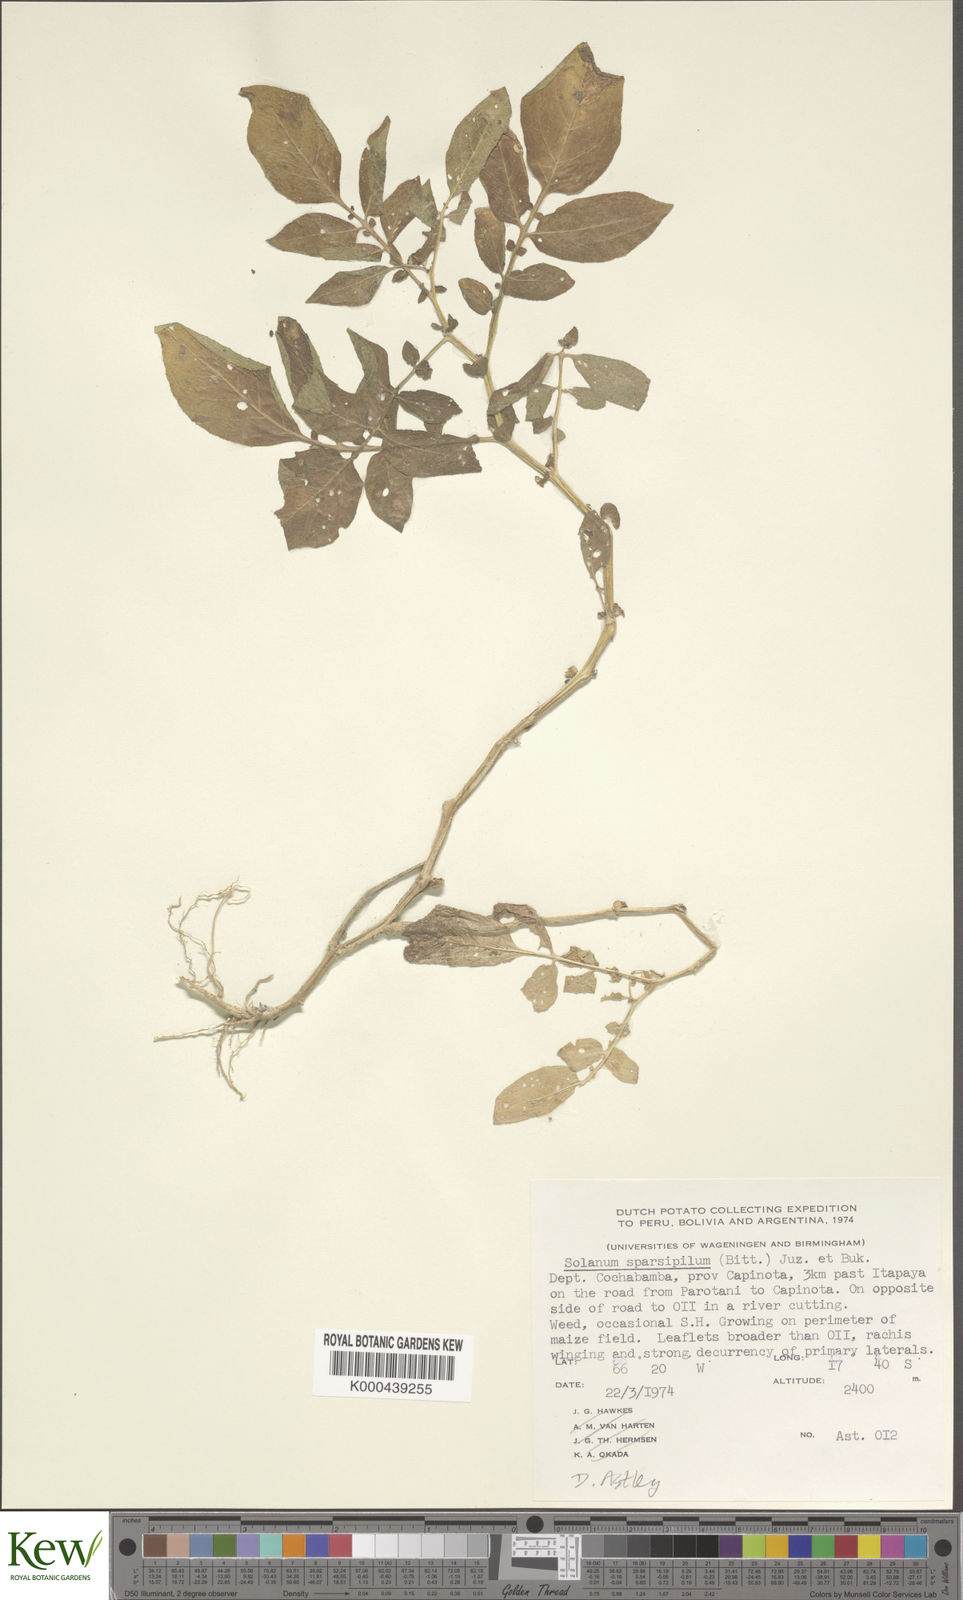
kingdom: Plantae
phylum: Tracheophyta
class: Magnoliopsida
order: Solanales
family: Solanaceae
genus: Solanum
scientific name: Solanum brevicaule
